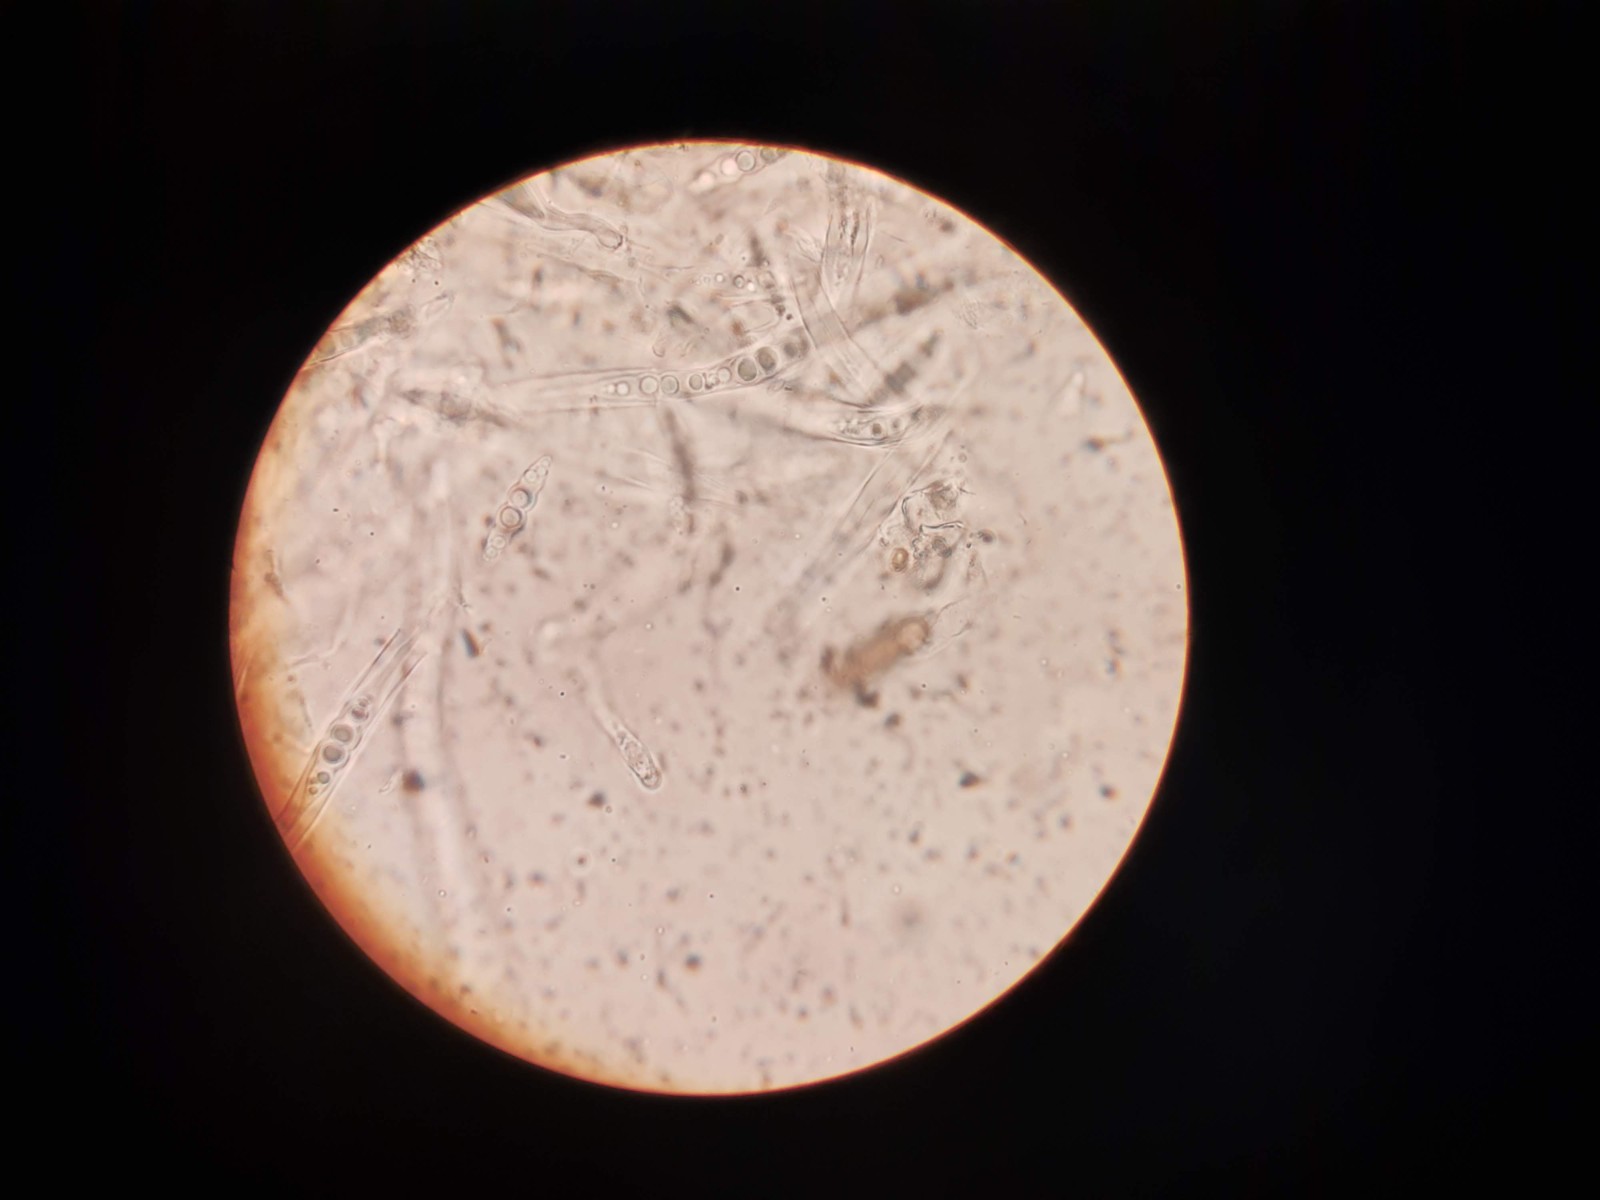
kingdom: Fungi
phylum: Ascomycota
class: Dothideomycetes
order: Pleosporales
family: Lophiostomataceae
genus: Lophiostoma
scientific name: Lophiostoma semiliberum
